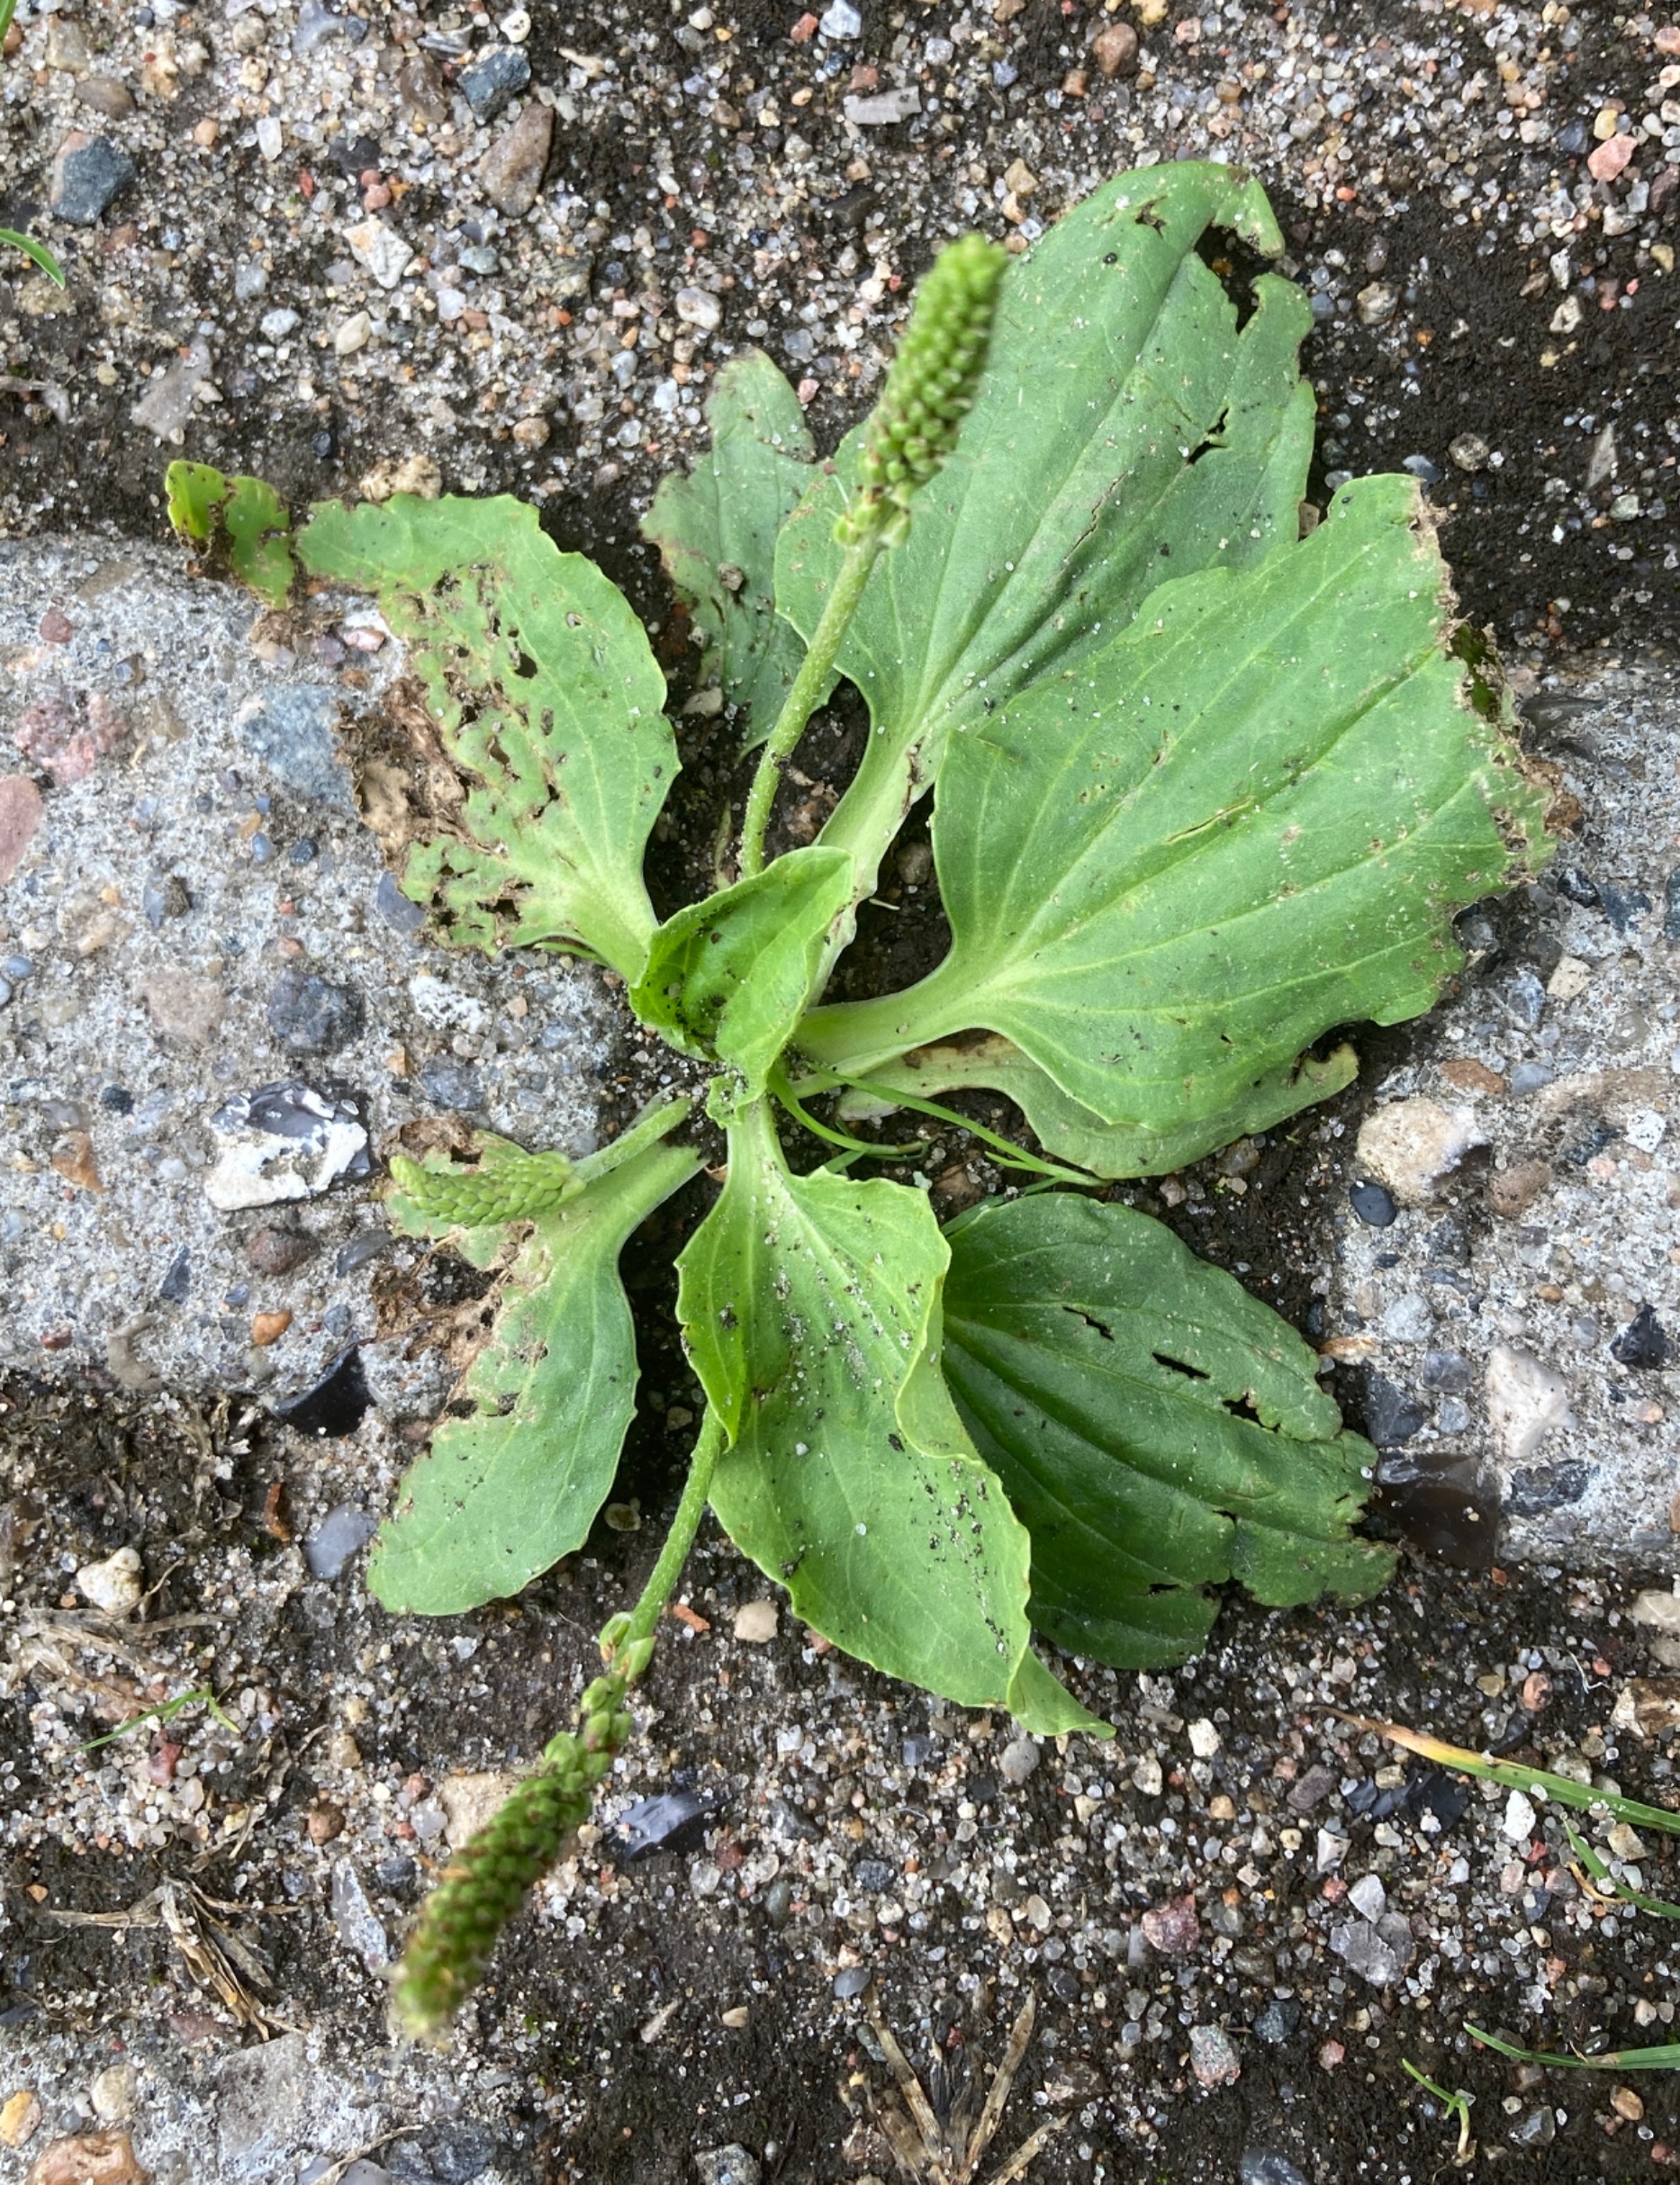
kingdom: Plantae
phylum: Tracheophyta
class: Magnoliopsida
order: Lamiales
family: Plantaginaceae
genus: Plantago
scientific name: Plantago major
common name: Glat vejbred
